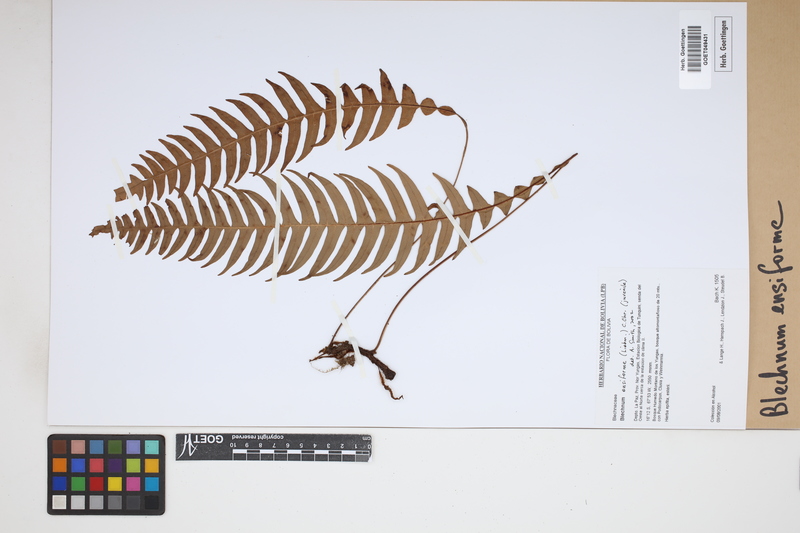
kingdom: Plantae
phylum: Tracheophyta
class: Polypodiopsida
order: Polypodiales
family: Blechnaceae
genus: Lomaridium
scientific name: Lomaridium ensiforme
